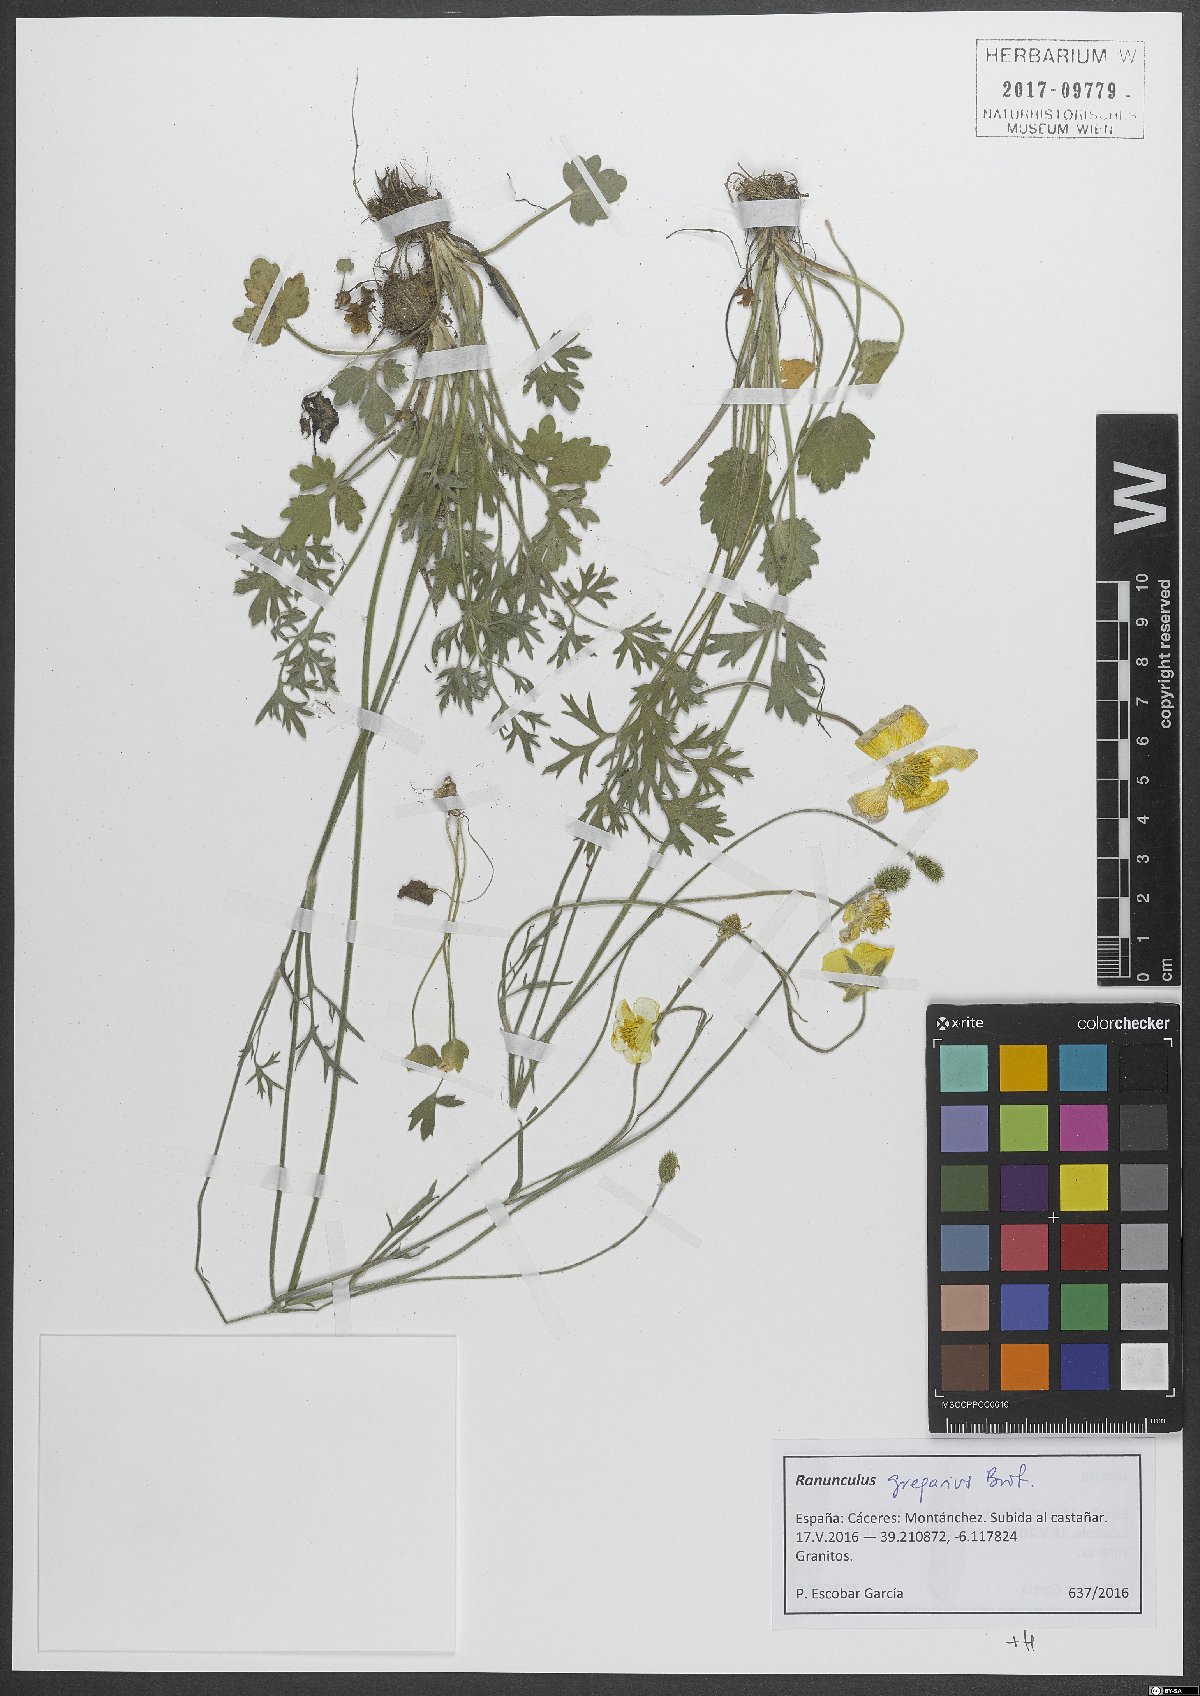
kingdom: Plantae
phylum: Tracheophyta
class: Magnoliopsida
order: Ranunculales
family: Ranunculaceae
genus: Ranunculus
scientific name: Ranunculus gregarius
